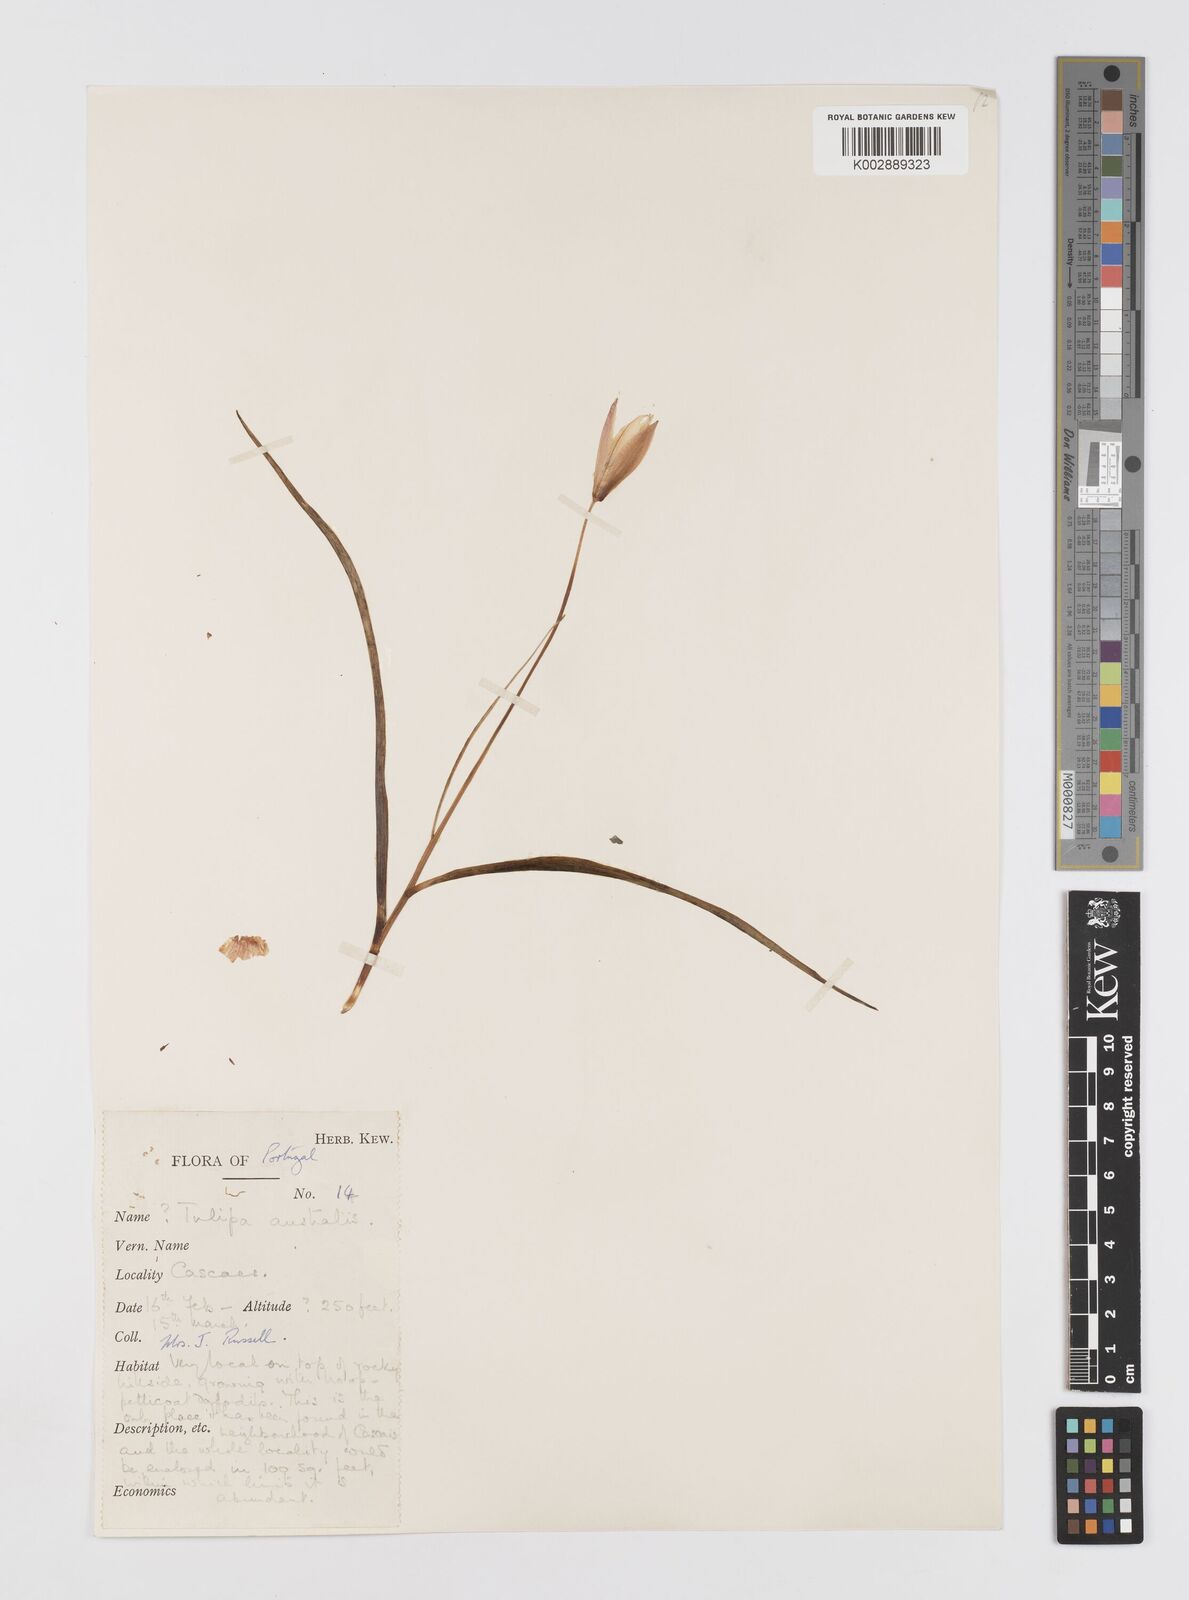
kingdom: Plantae
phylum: Tracheophyta
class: Liliopsida
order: Liliales
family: Liliaceae
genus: Tulipa
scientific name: Tulipa sylvestris
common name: Wild tulip
